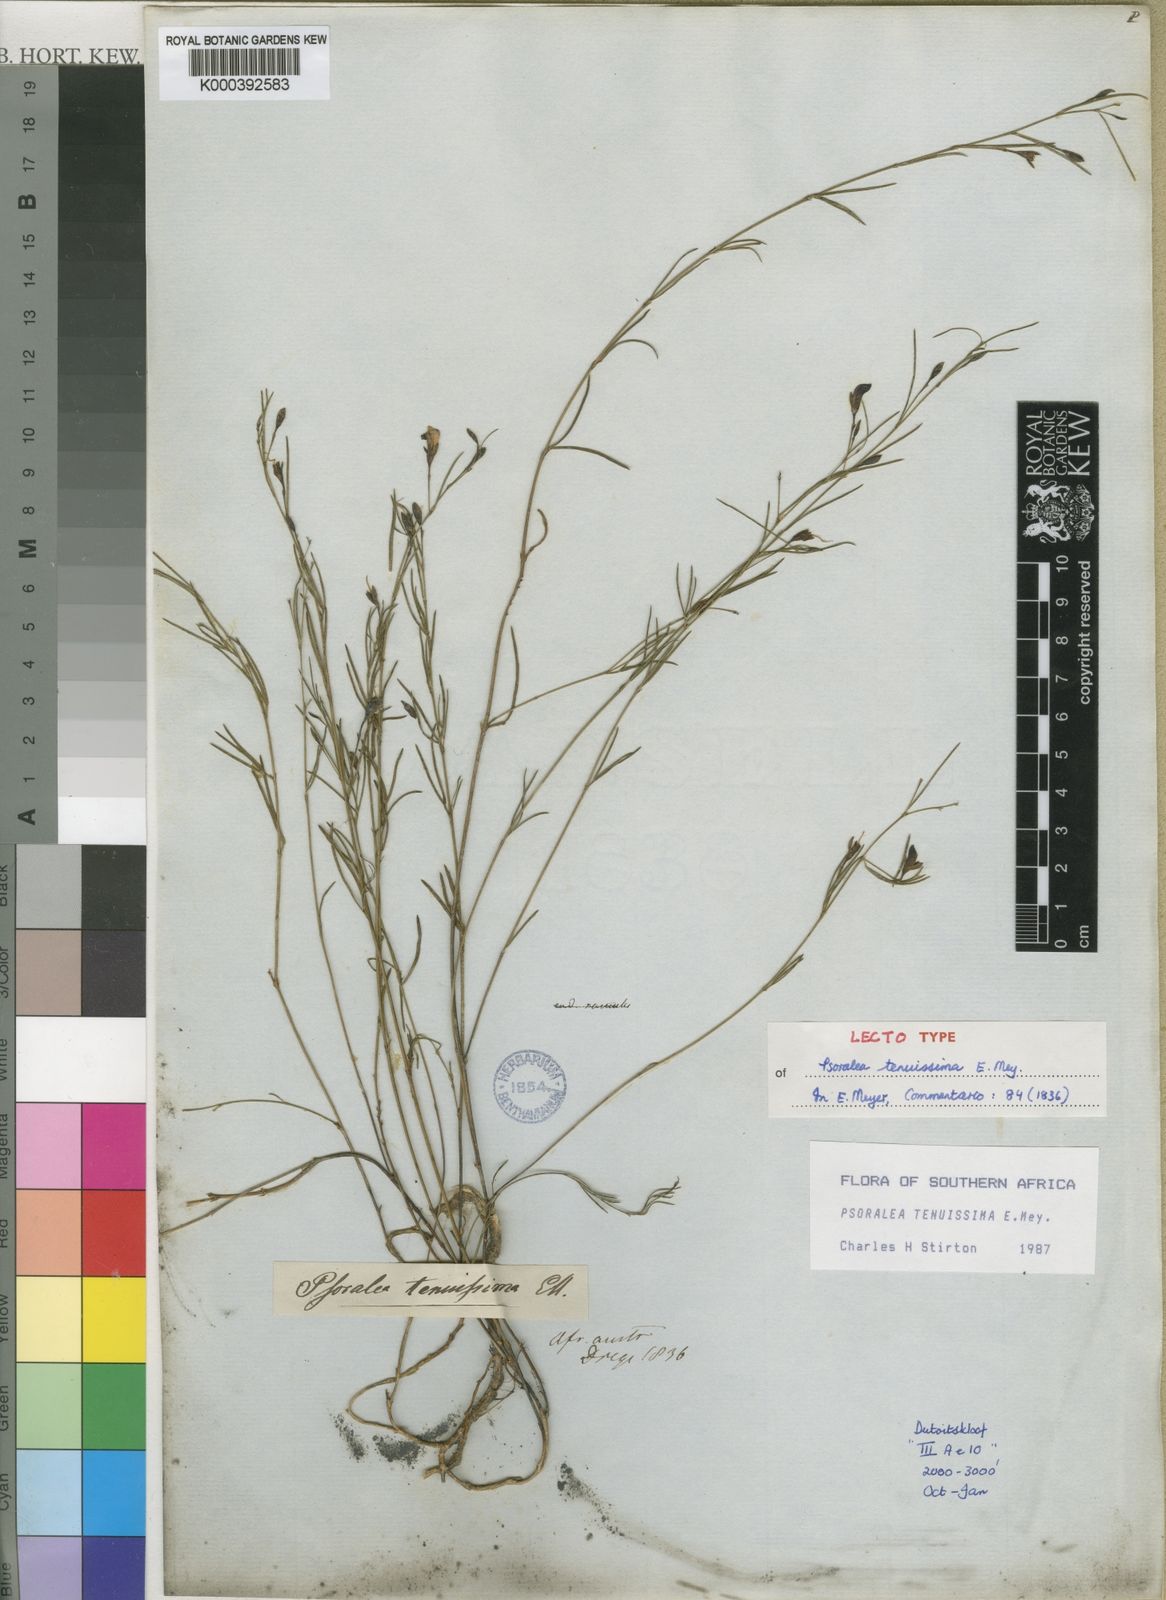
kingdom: Plantae
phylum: Tracheophyta
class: Magnoliopsida
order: Fabales
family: Fabaceae
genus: Psoralea
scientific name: Psoralea tenuissima
